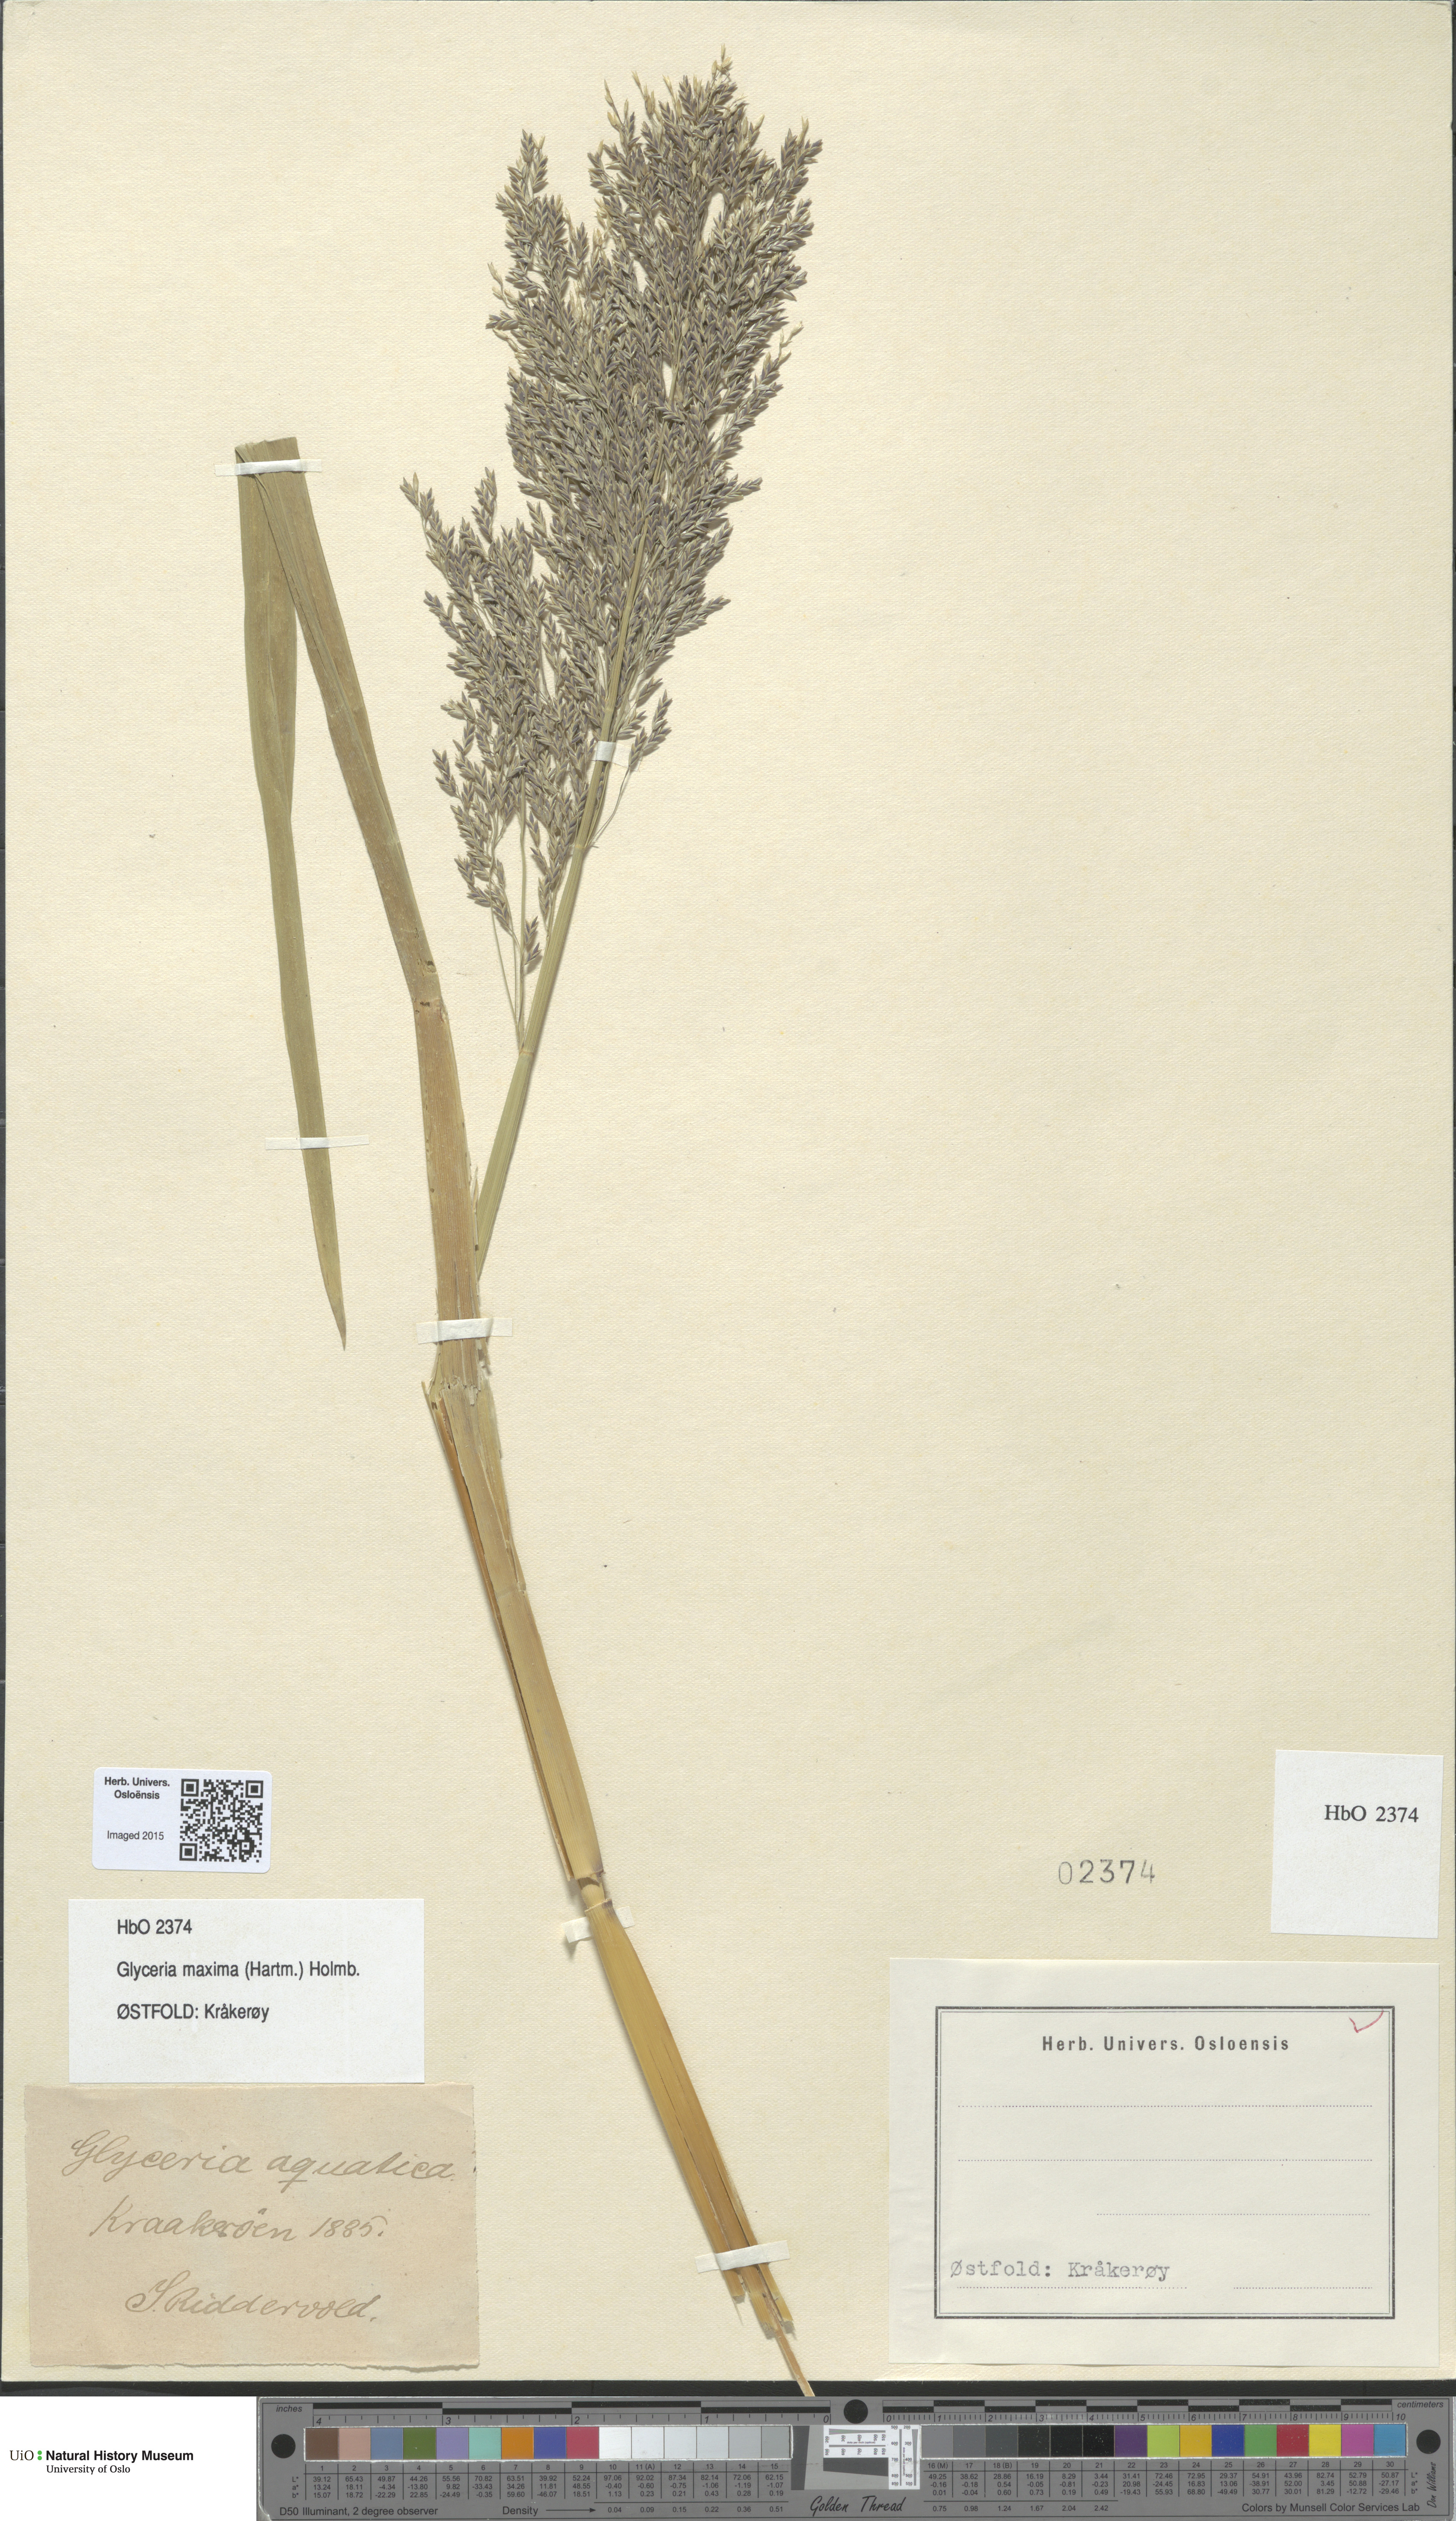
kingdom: Plantae
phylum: Tracheophyta
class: Liliopsida
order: Poales
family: Poaceae
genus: Glyceria
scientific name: Glyceria maxima
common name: Reed mannagrass
